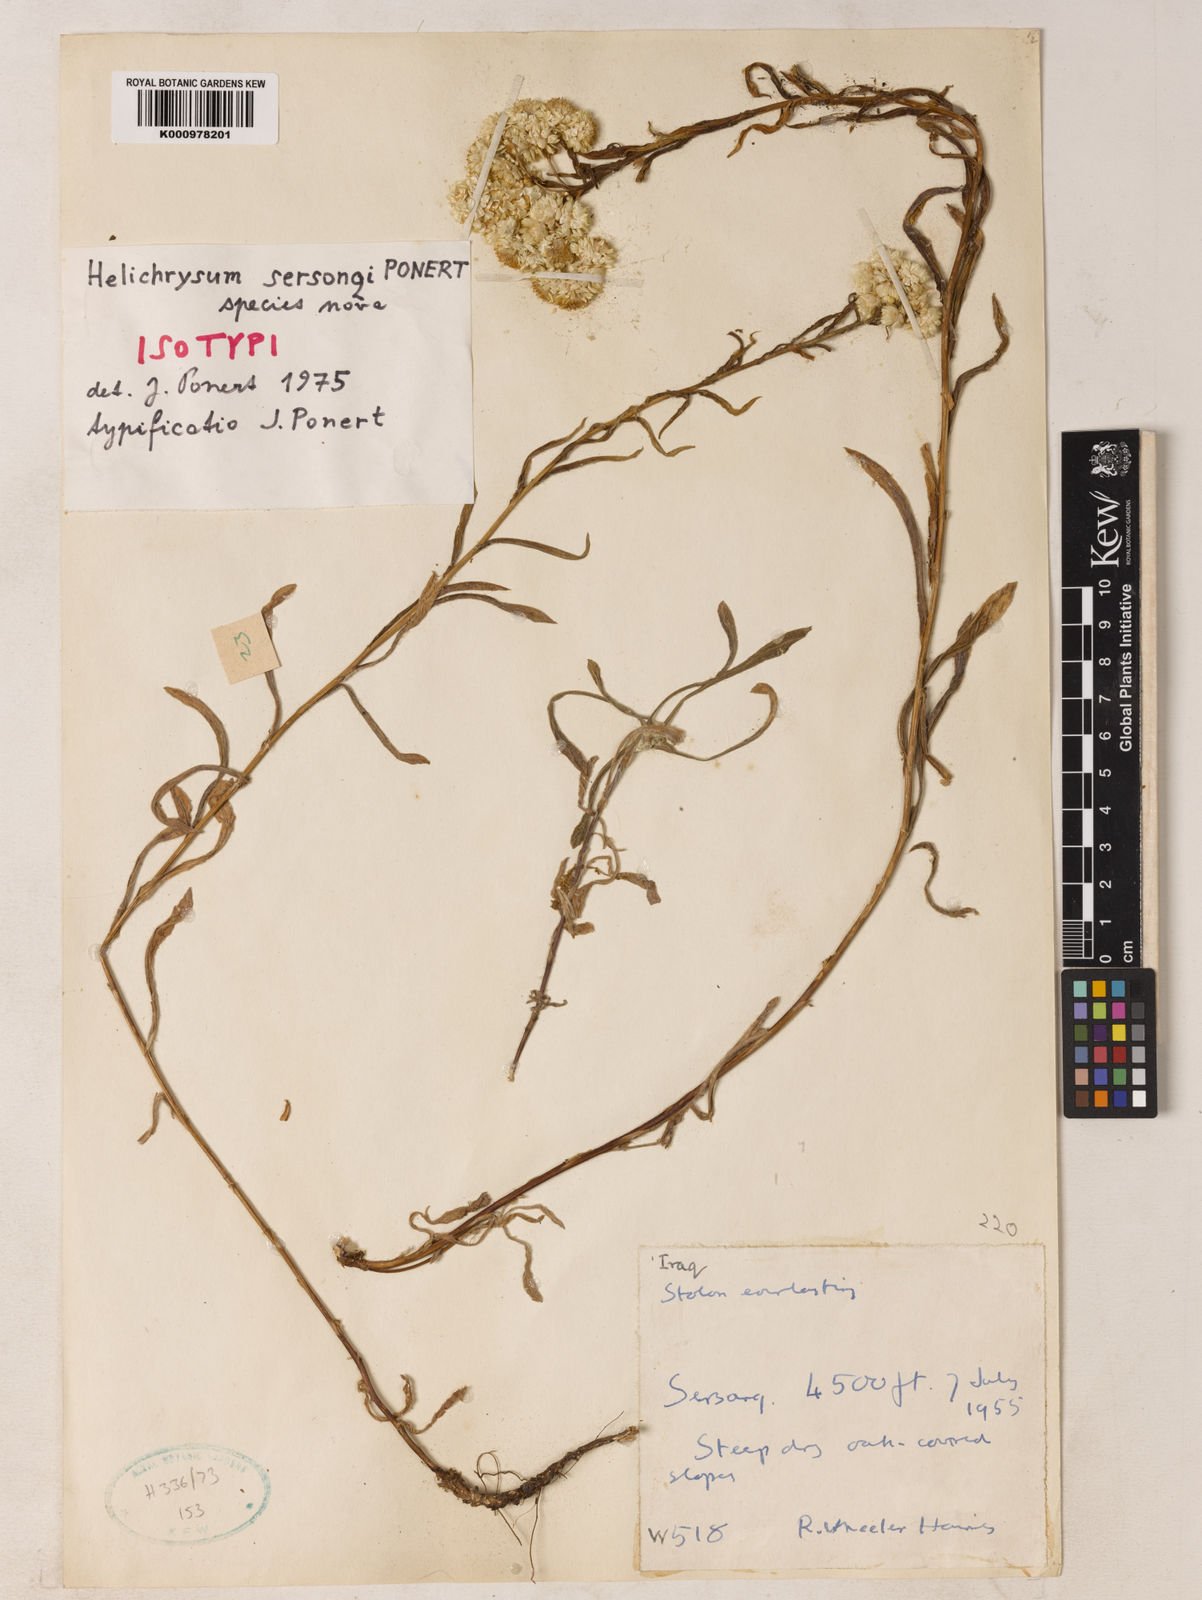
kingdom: Plantae
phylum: Tracheophyta
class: Magnoliopsida
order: Asterales
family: Asteraceae
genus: Helichrysum
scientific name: Helichrysum
